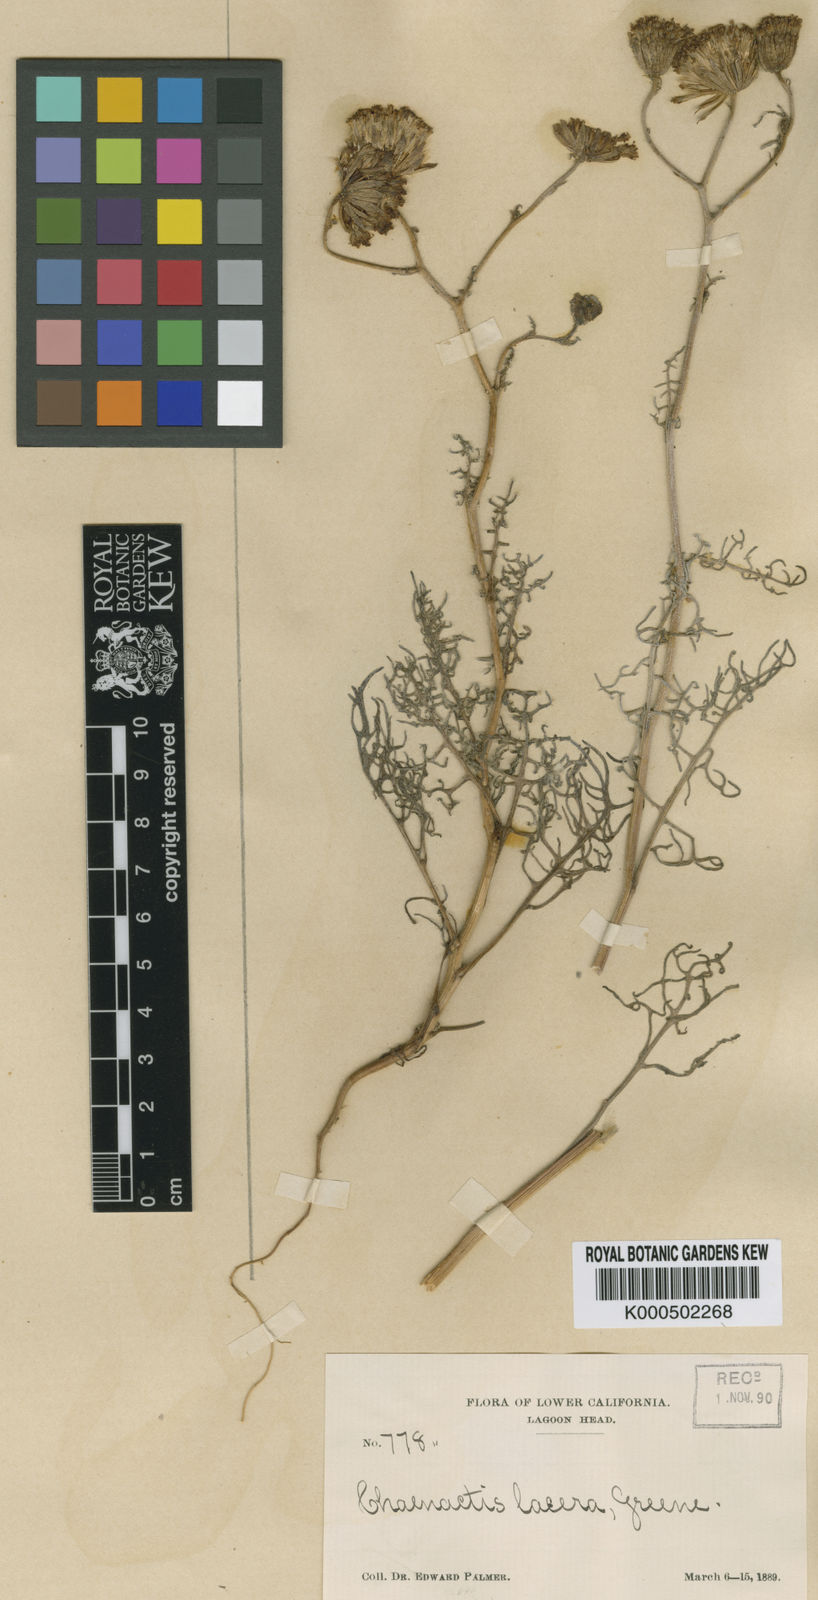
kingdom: Plantae
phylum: Tracheophyta
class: Magnoliopsida
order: Asterales
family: Asteraceae
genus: Chaenactis
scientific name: Chaenactis lacera
